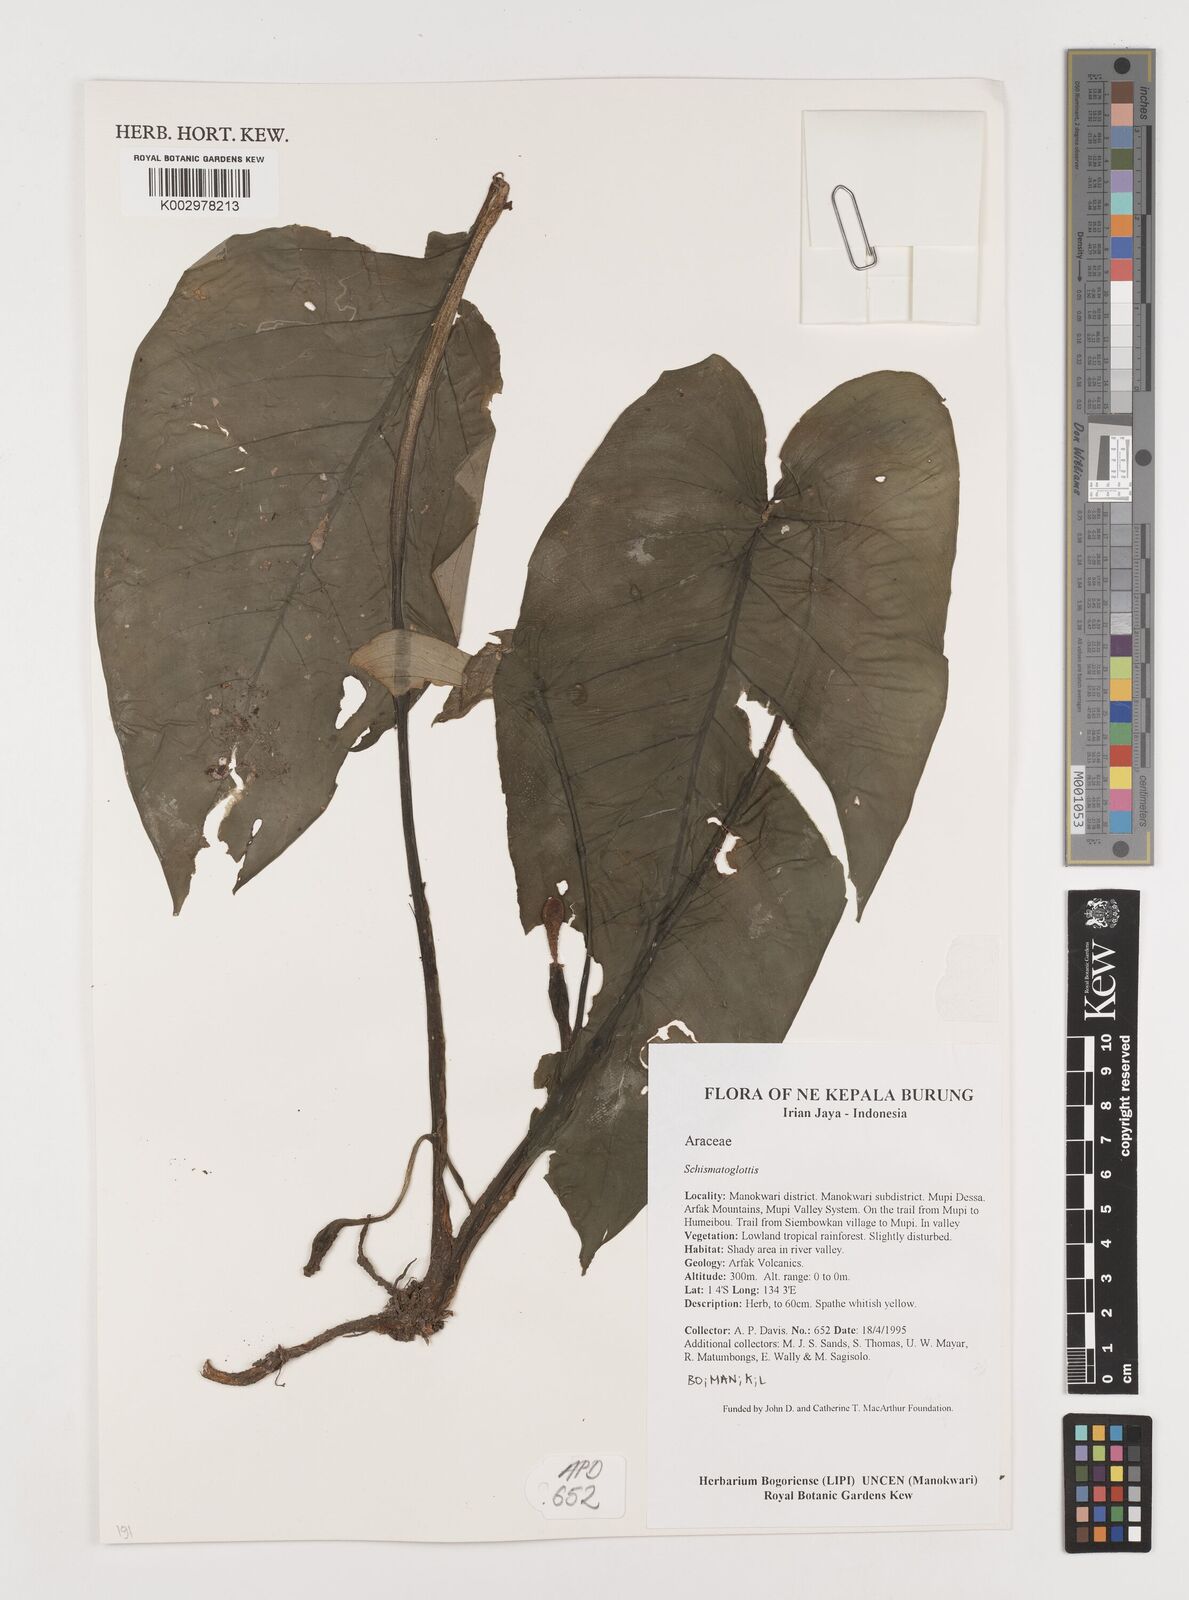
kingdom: Plantae
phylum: Tracheophyta
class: Liliopsida
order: Alismatales
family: Araceae
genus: Schismatoglottis
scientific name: Schismatoglottis calyptrata
